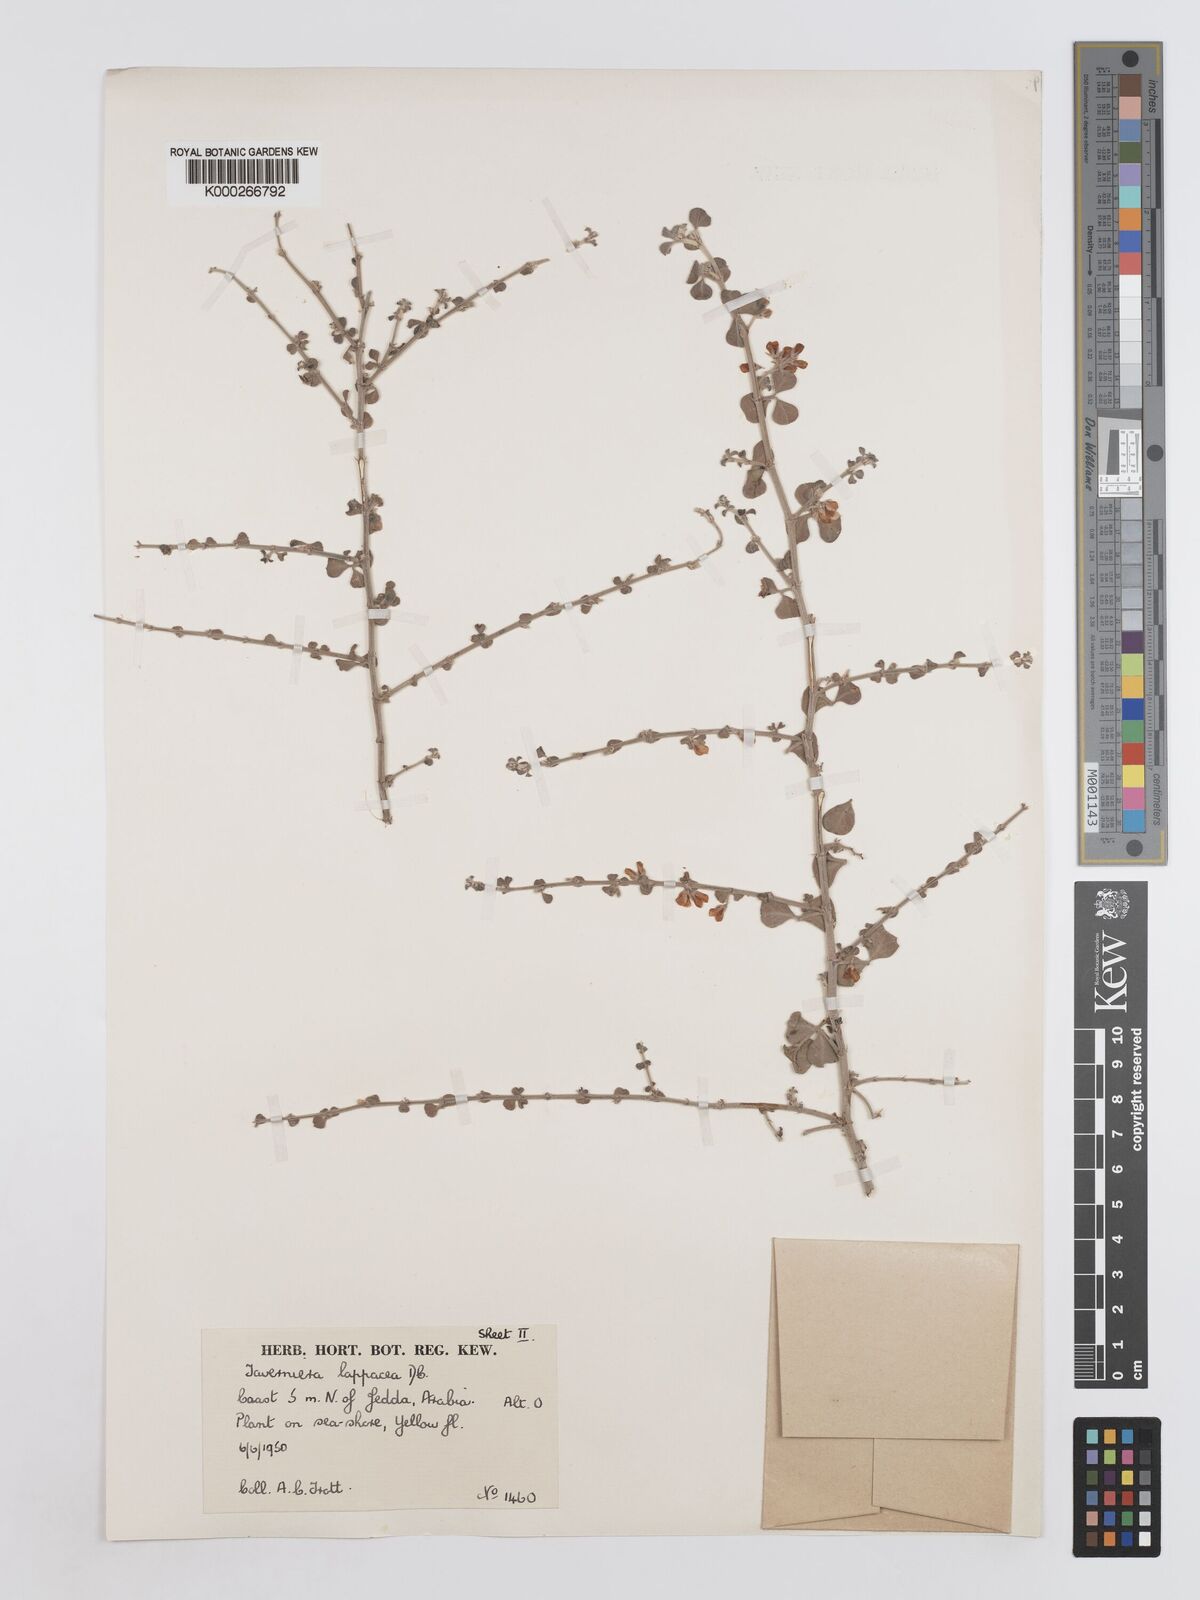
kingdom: Plantae
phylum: Tracheophyta
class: Magnoliopsida
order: Fabales
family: Fabaceae
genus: Taverniera
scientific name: Taverniera lappacea
